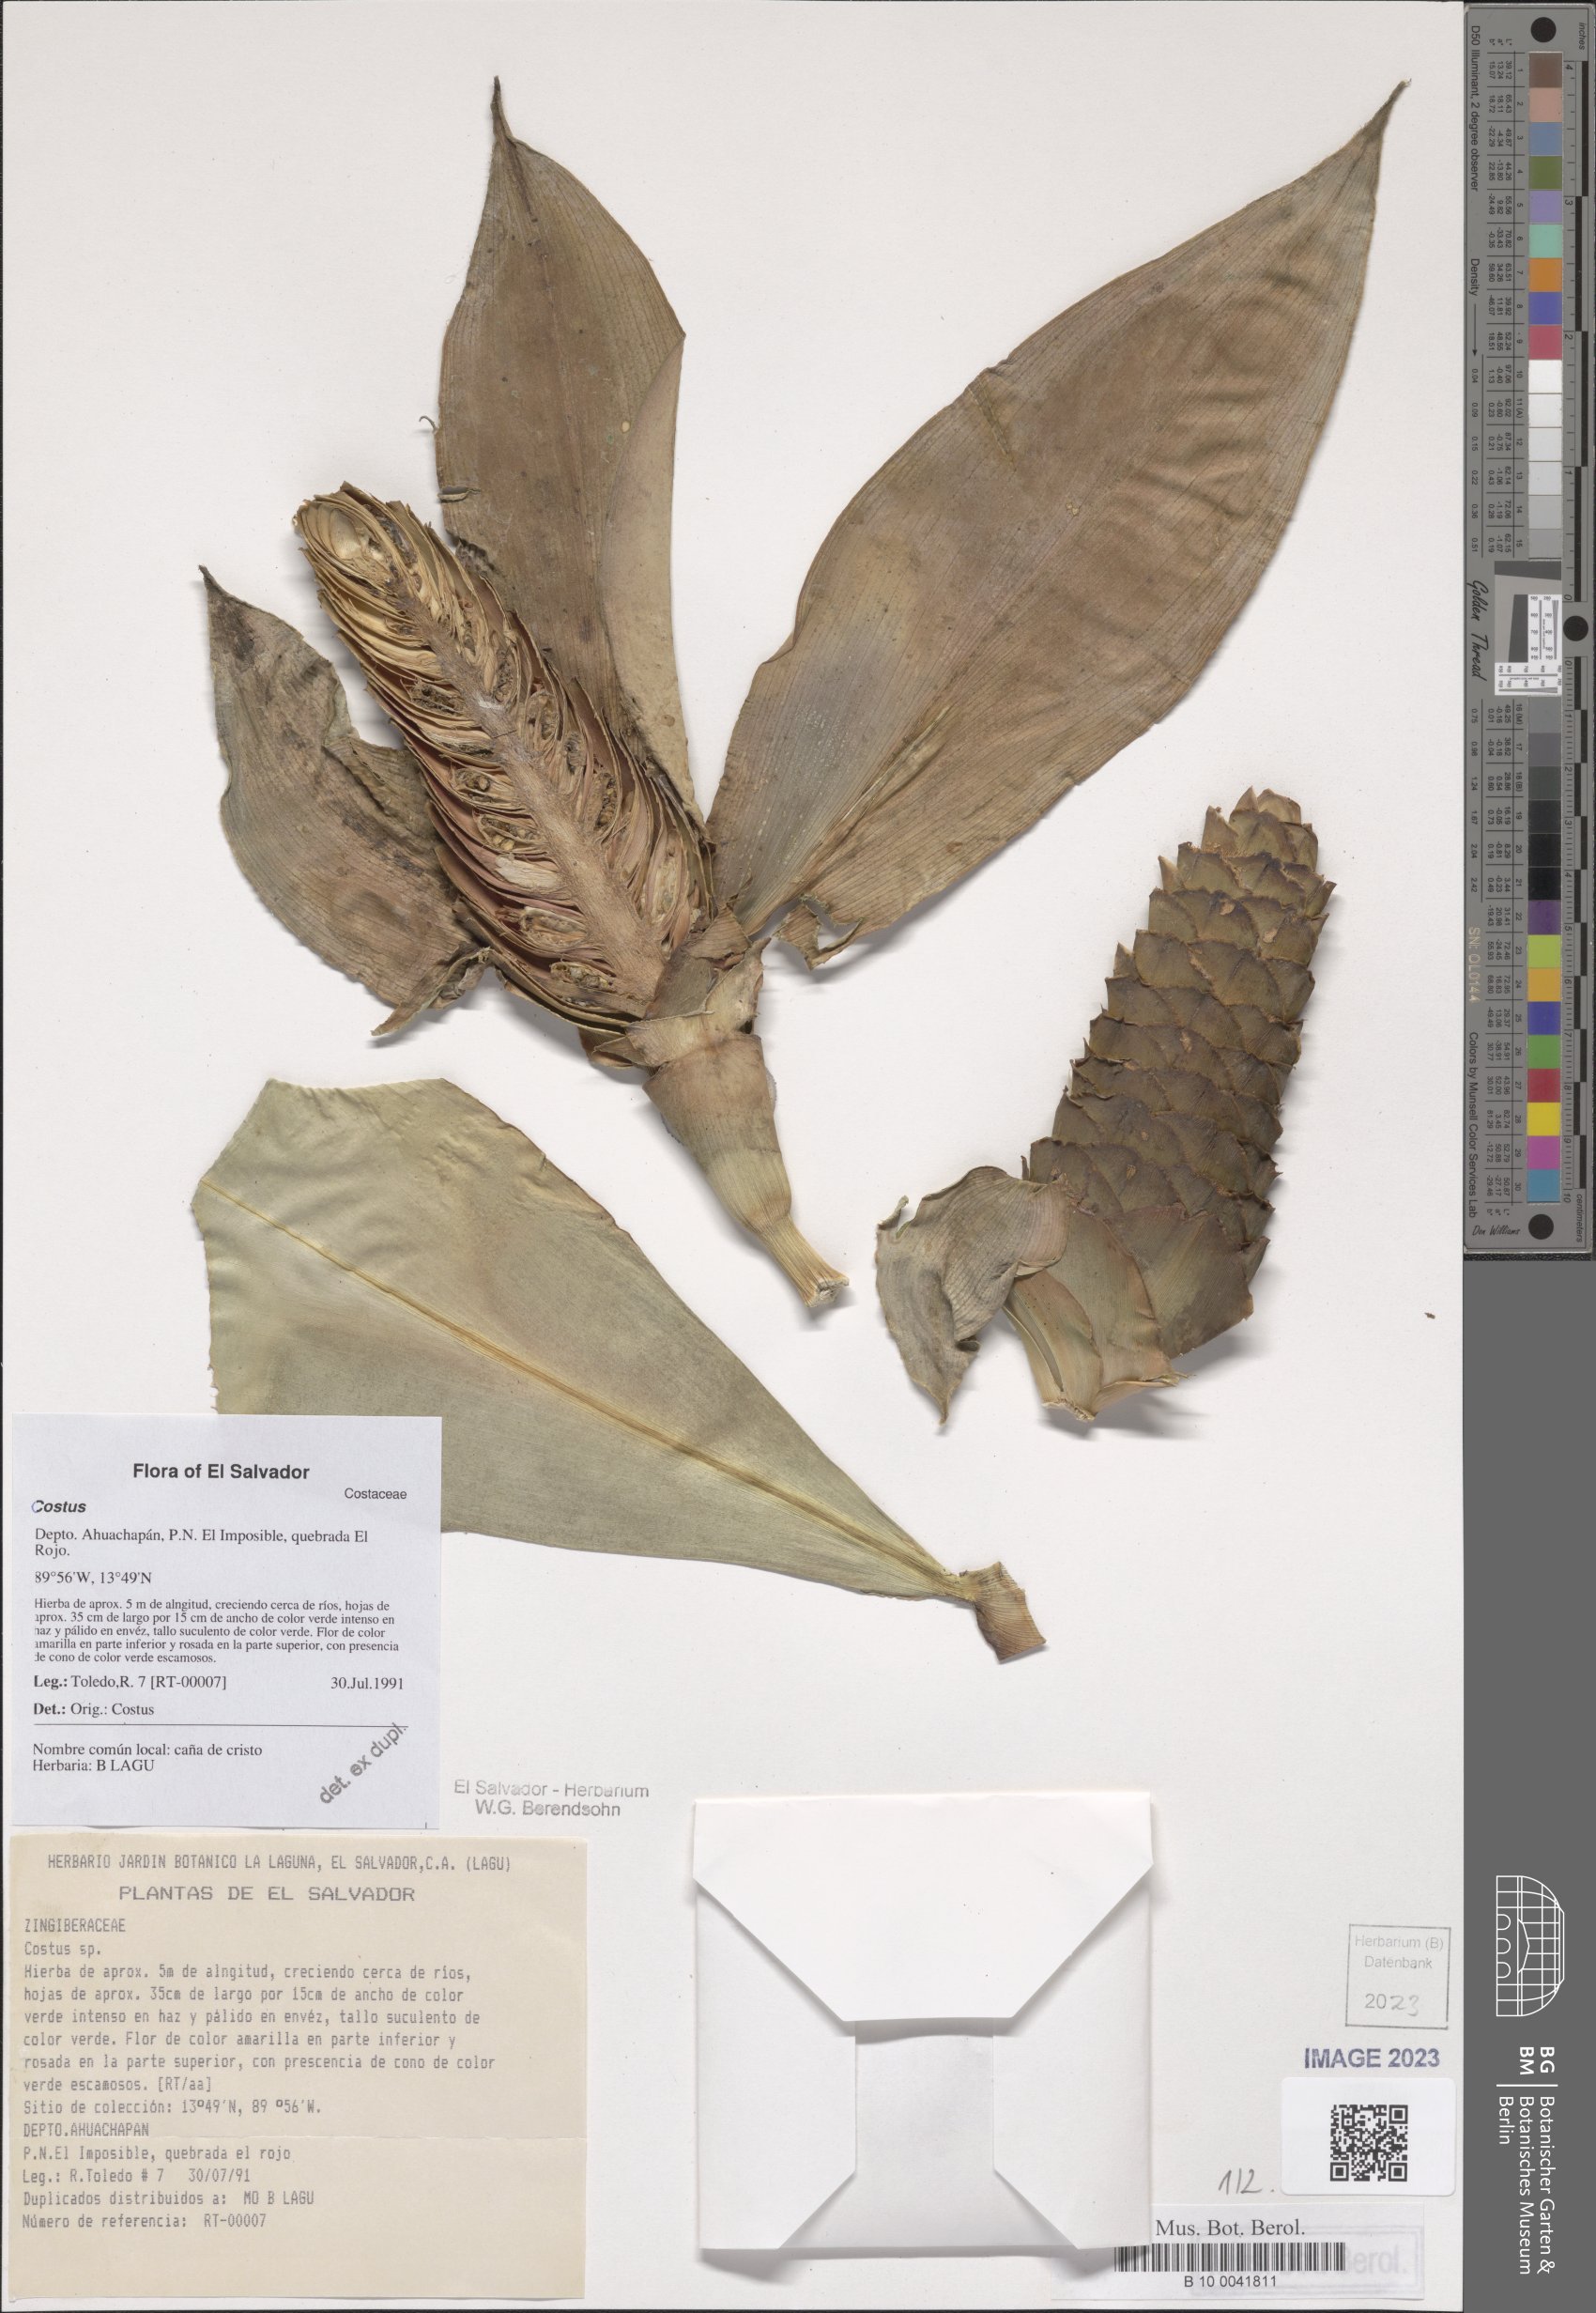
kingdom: Plantae
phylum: Tracheophyta
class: Liliopsida
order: Zingiberales
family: Costaceae
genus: Costus
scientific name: Costus
